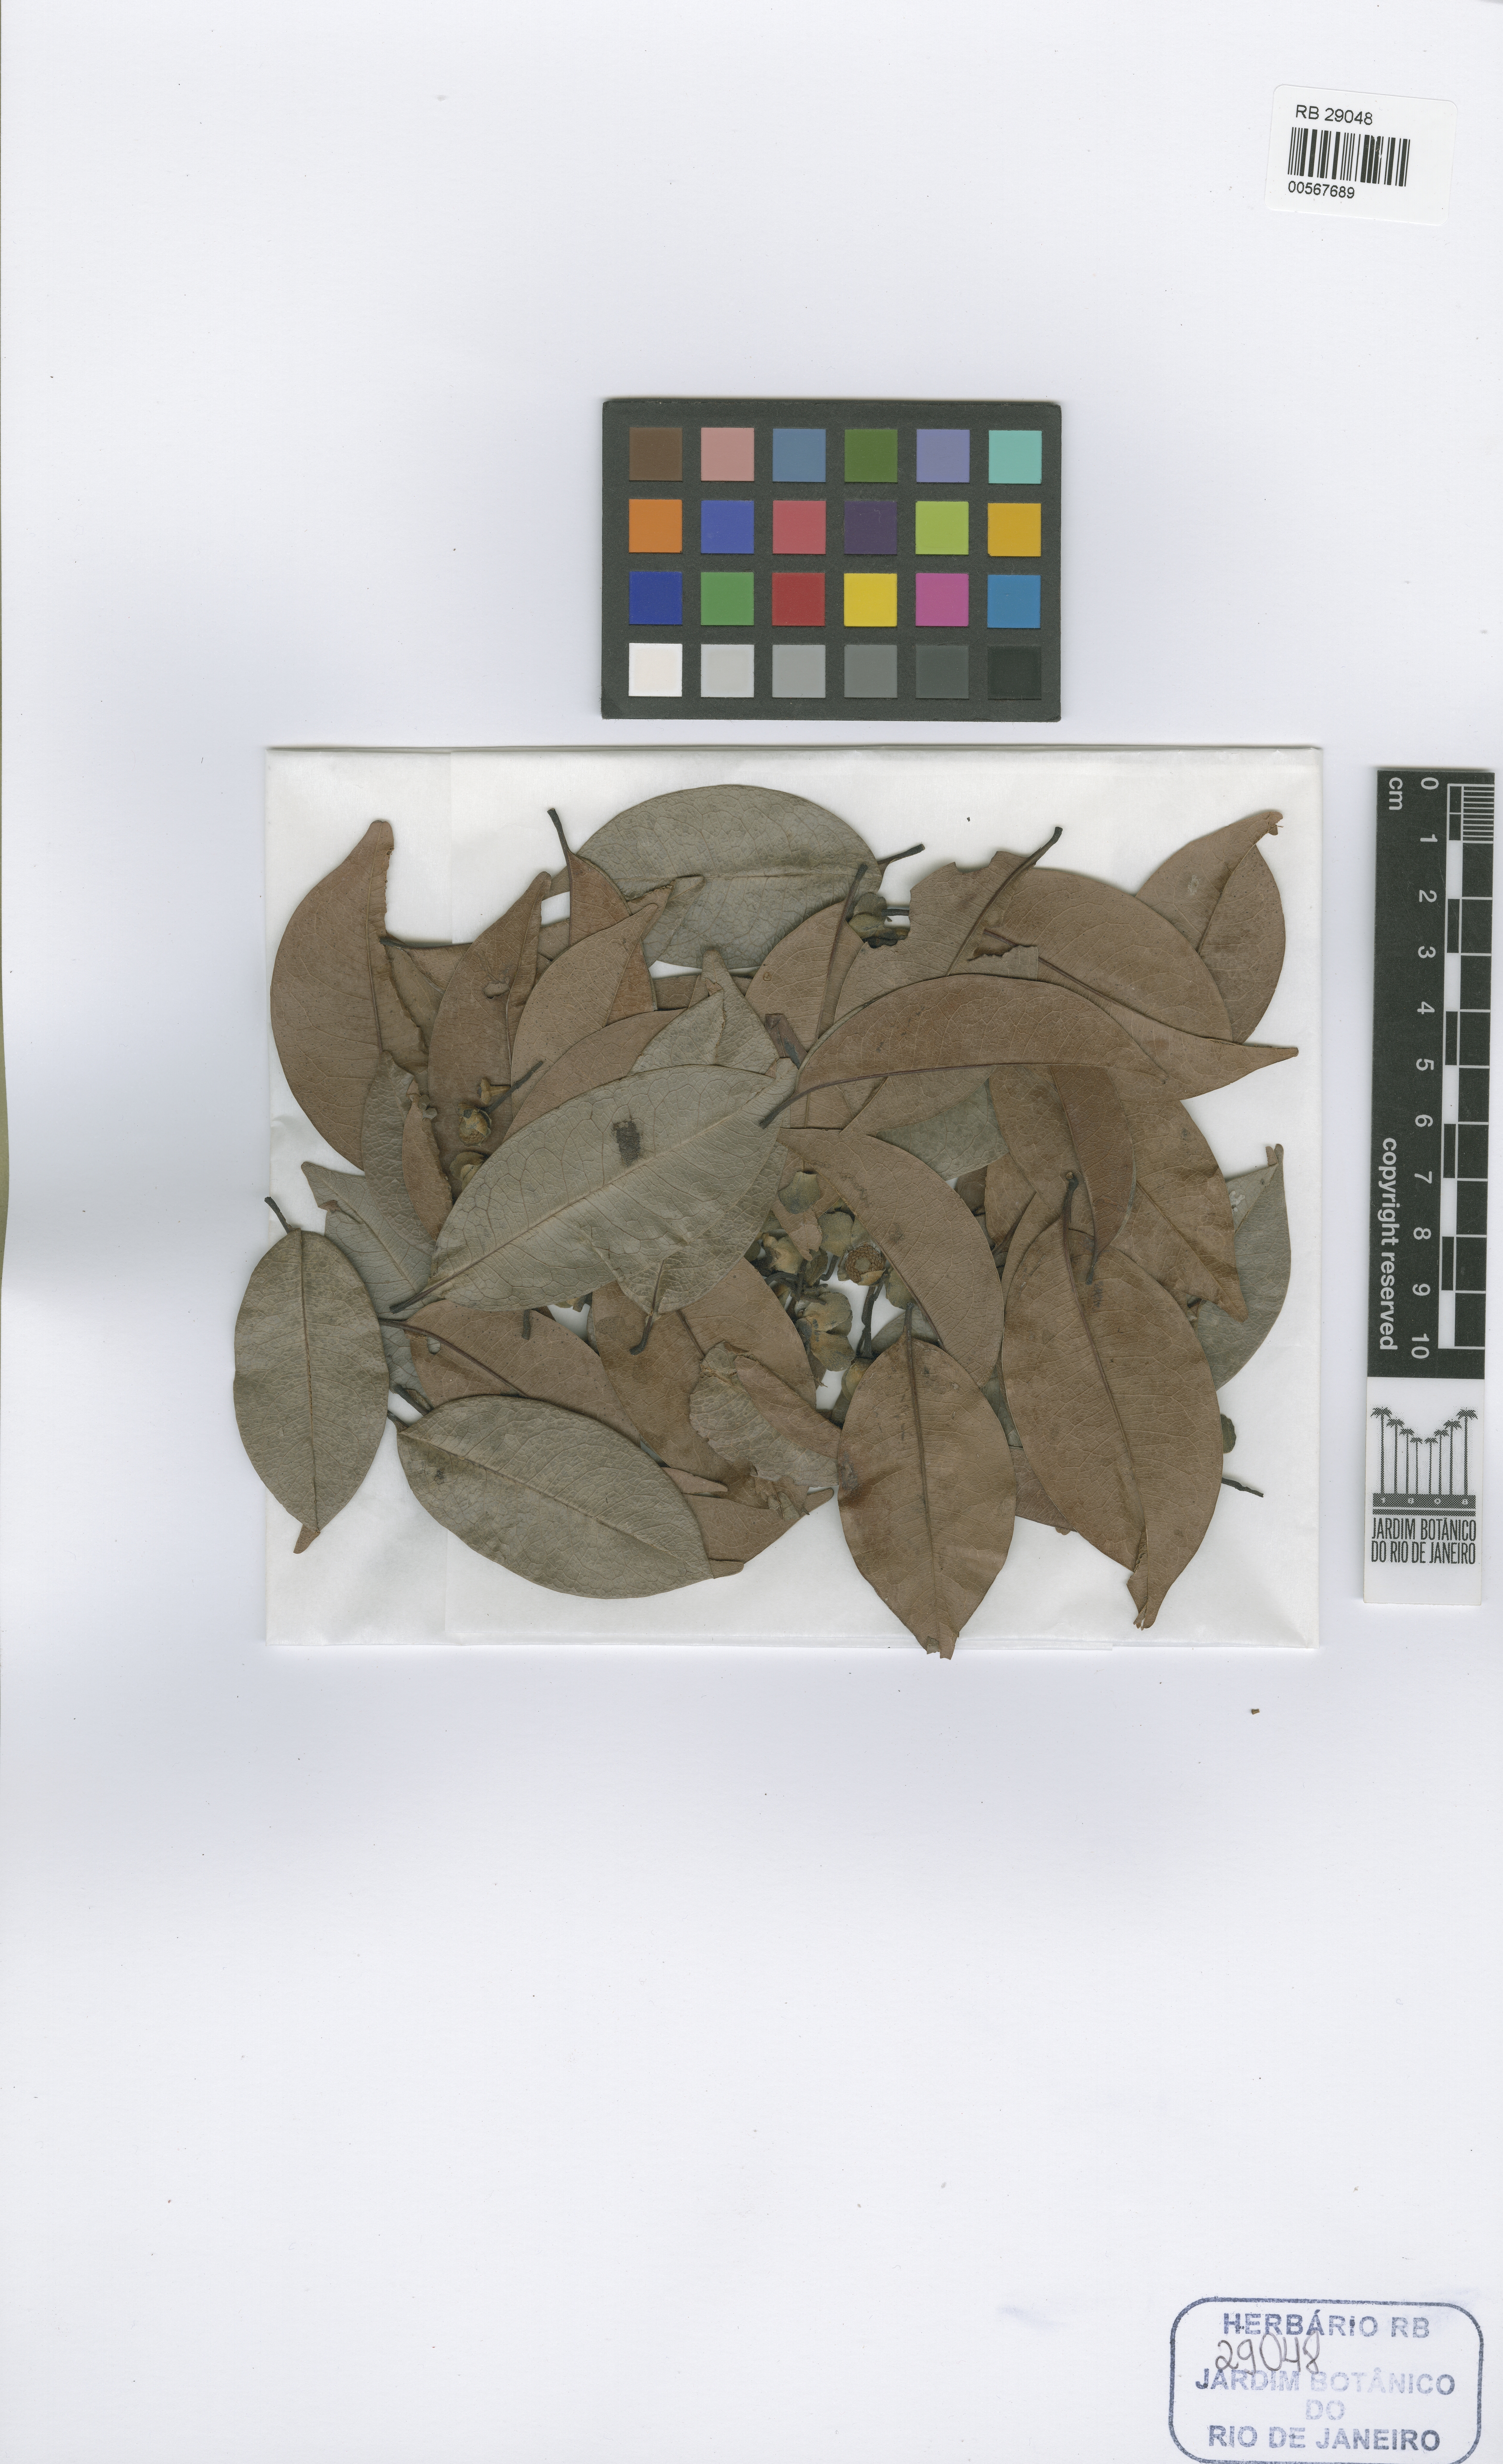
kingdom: Plantae
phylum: Tracheophyta
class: Magnoliopsida
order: Magnoliales
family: Annonaceae
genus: Guatteria
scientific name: Guatteria maypurensis
